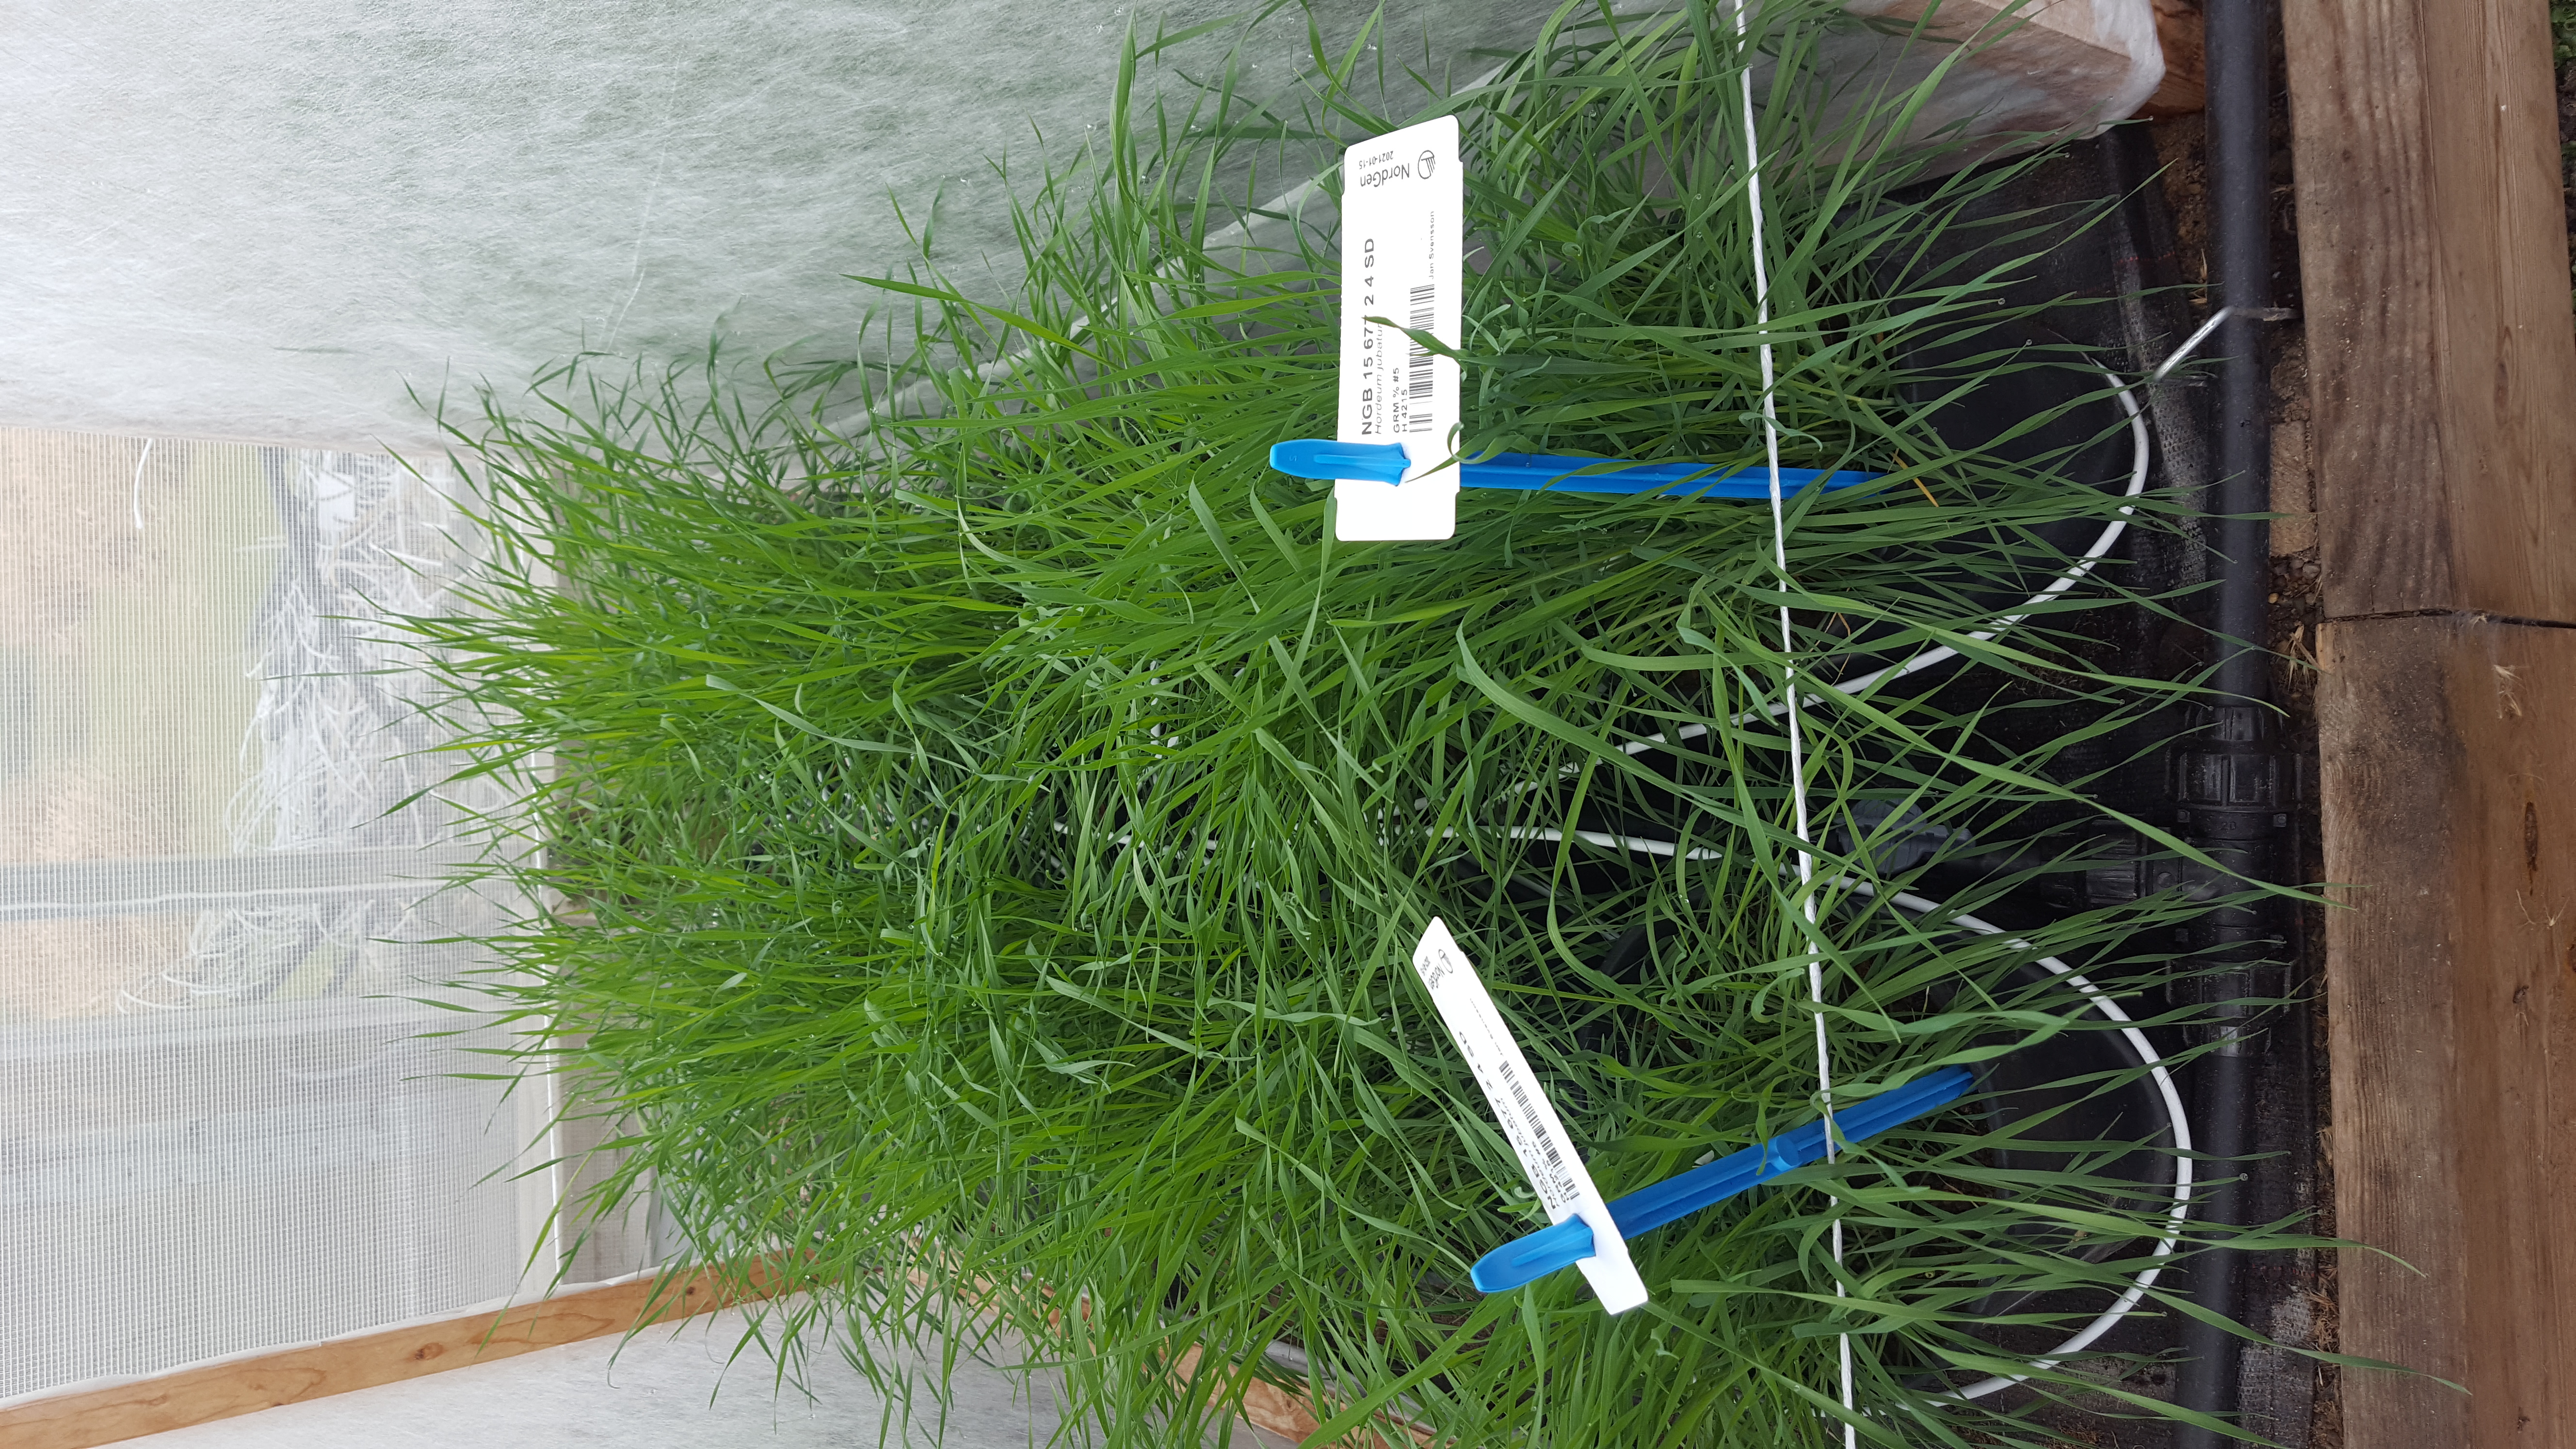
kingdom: Plantae
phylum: Tracheophyta
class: Liliopsida
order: Poales
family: Poaceae
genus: Hordeum
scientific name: Hordeum jubatum
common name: Foxtail barley
